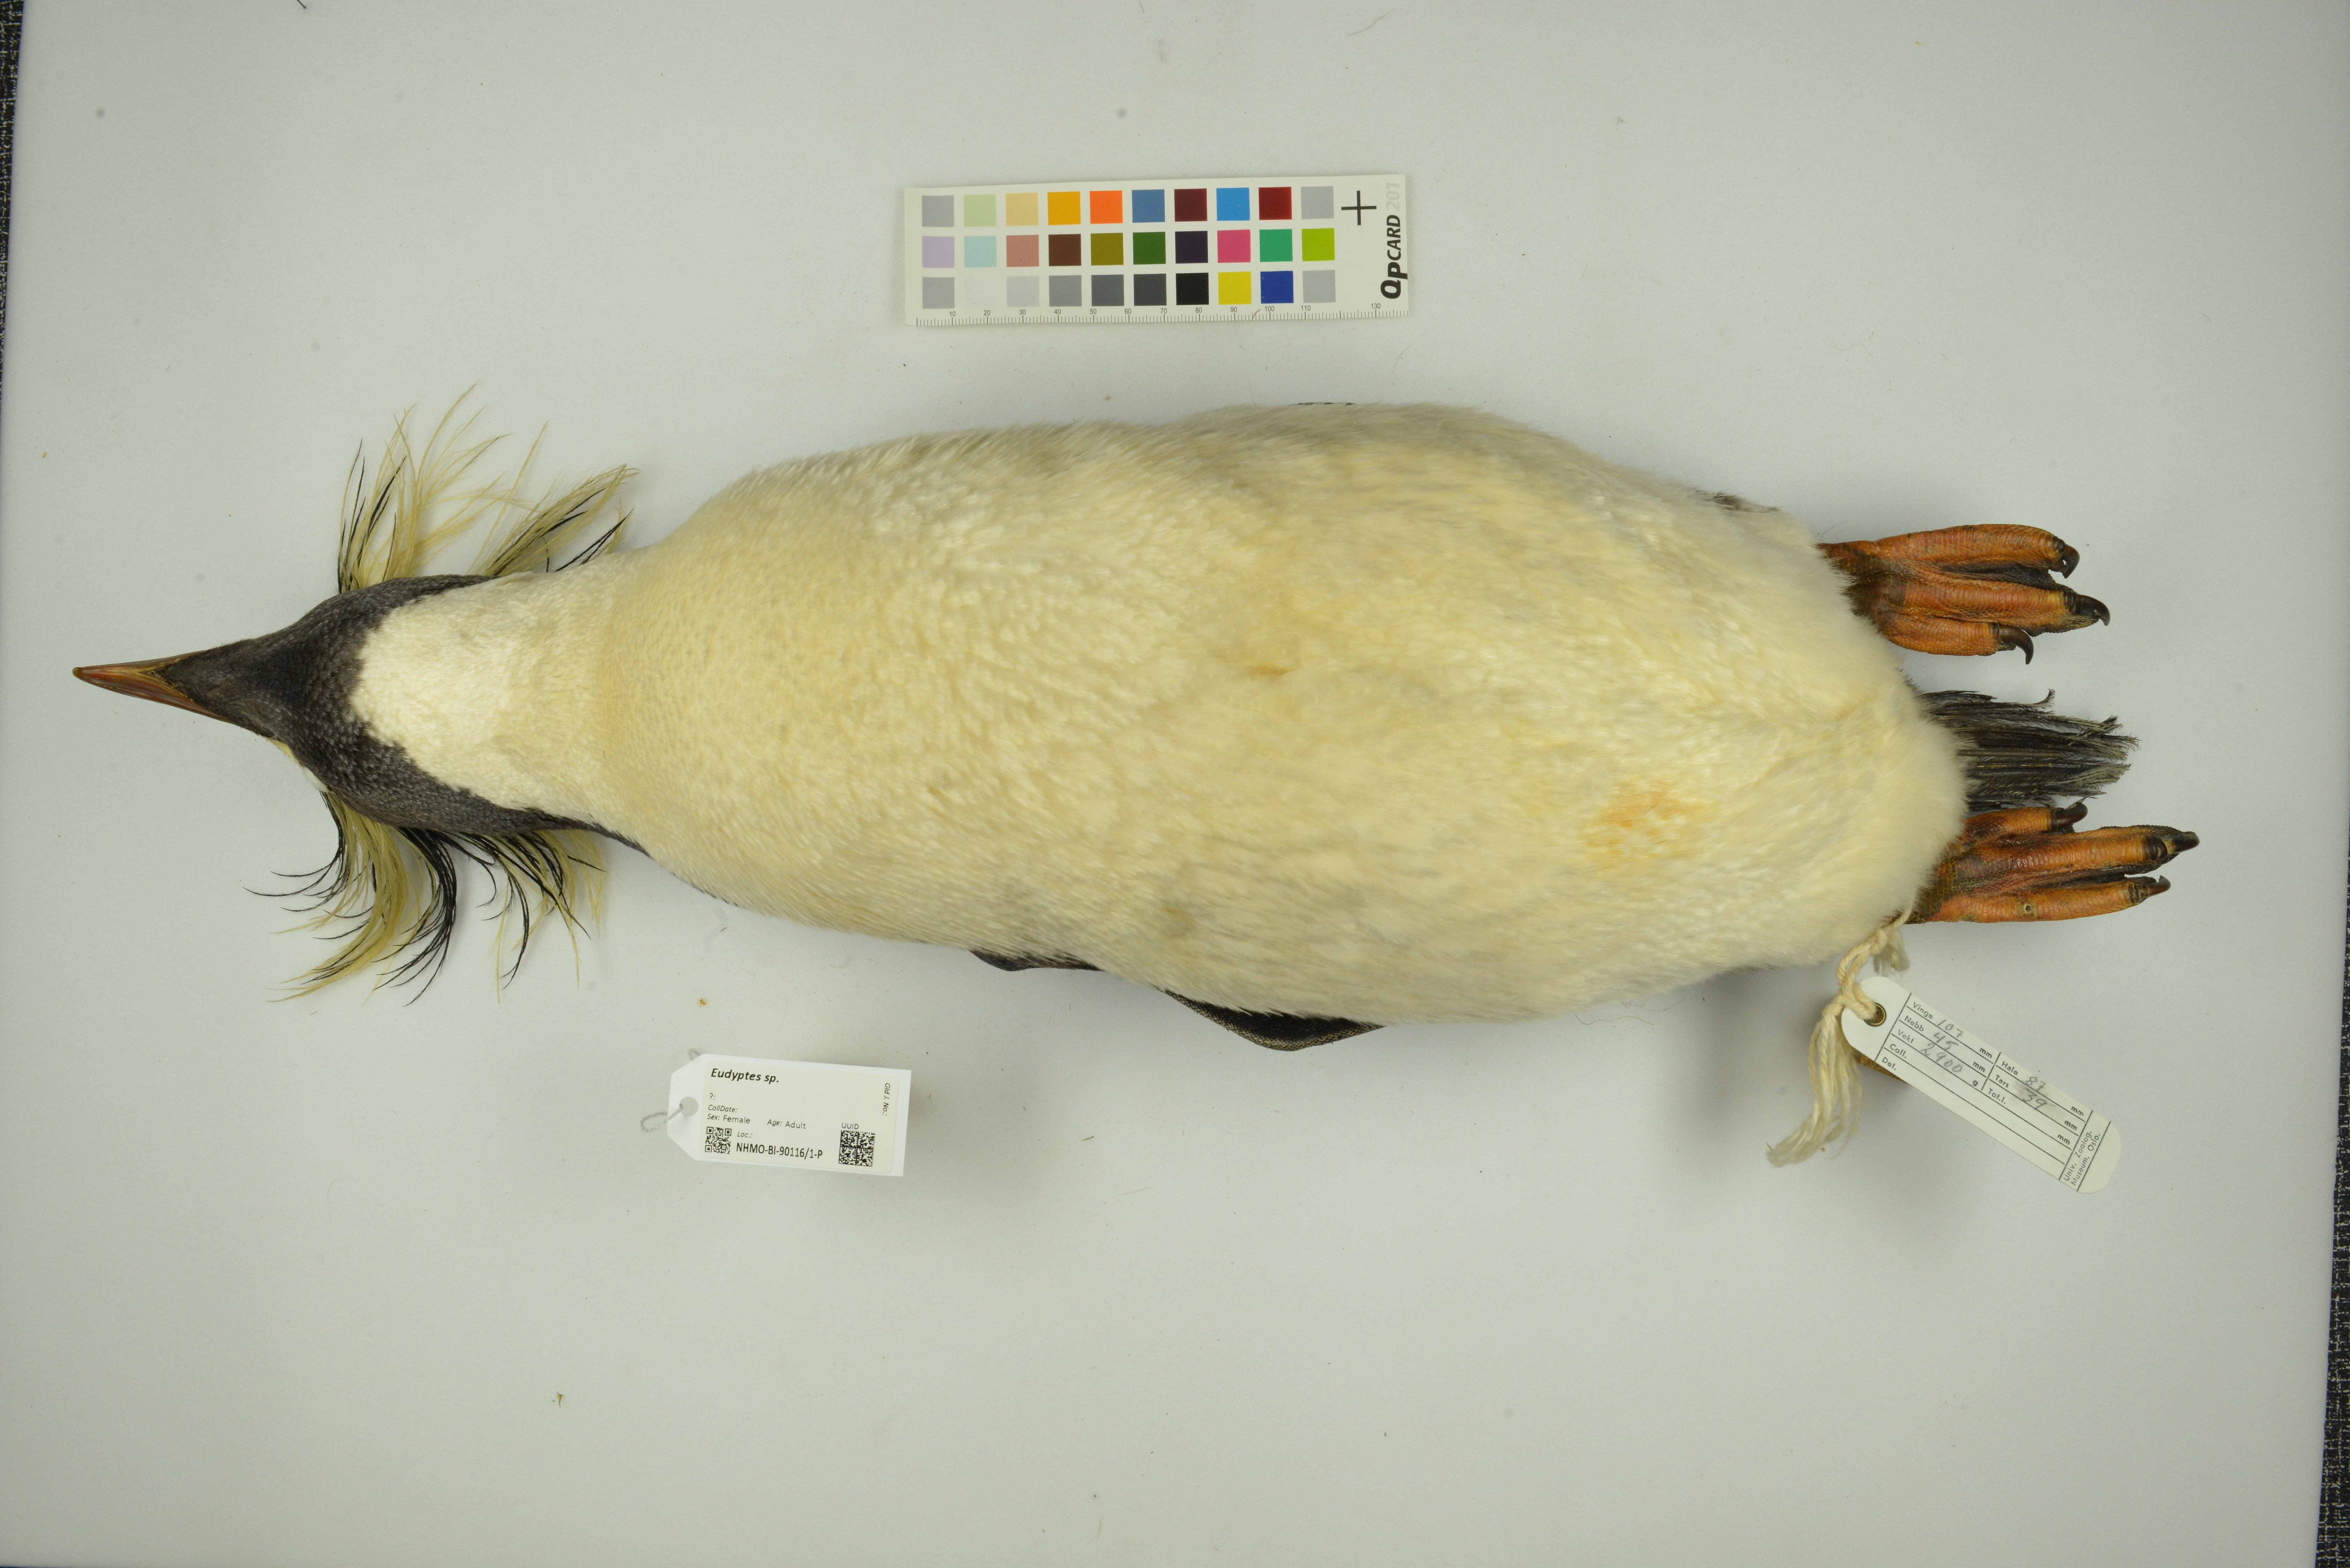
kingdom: Animalia
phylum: Chordata
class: Aves
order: Sphenisciformes
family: Spheniscidae
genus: Eudyptes
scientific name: Eudyptes
